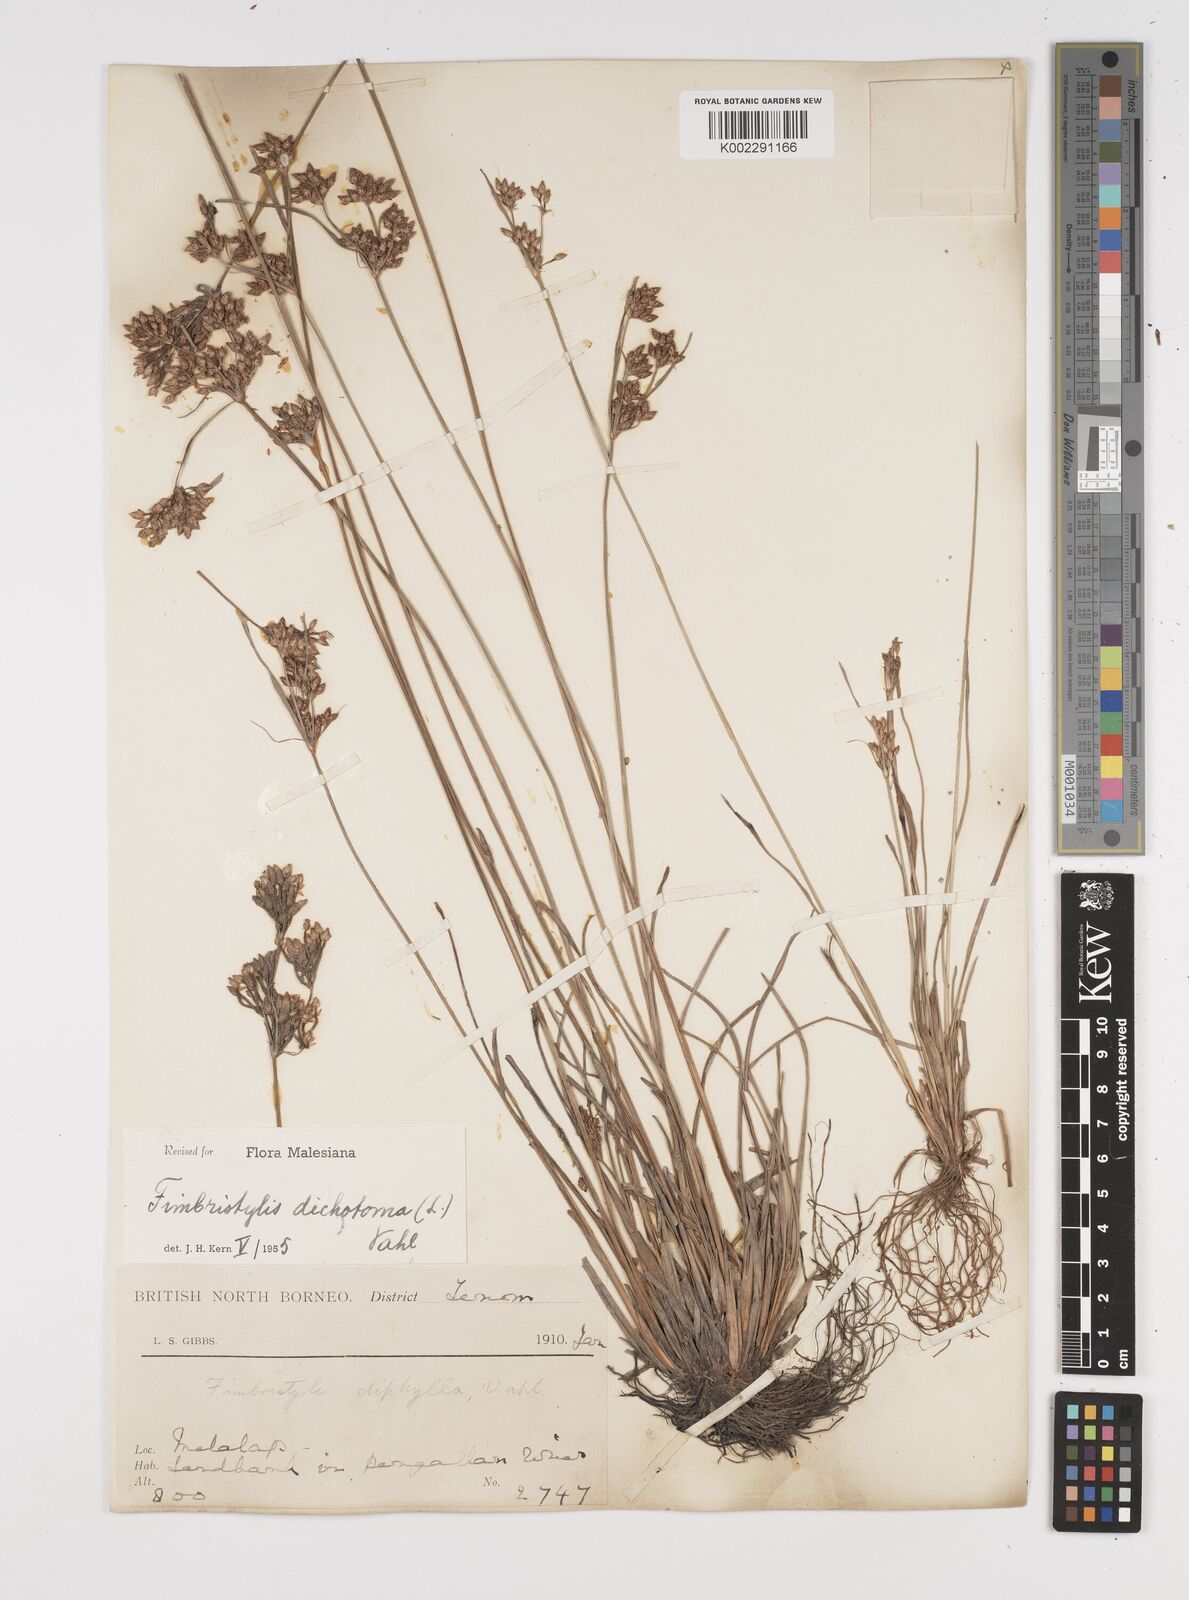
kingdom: Plantae
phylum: Tracheophyta
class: Liliopsida
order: Poales
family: Cyperaceae
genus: Fimbristylis
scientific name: Fimbristylis dichotoma
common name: Forked fimbry
